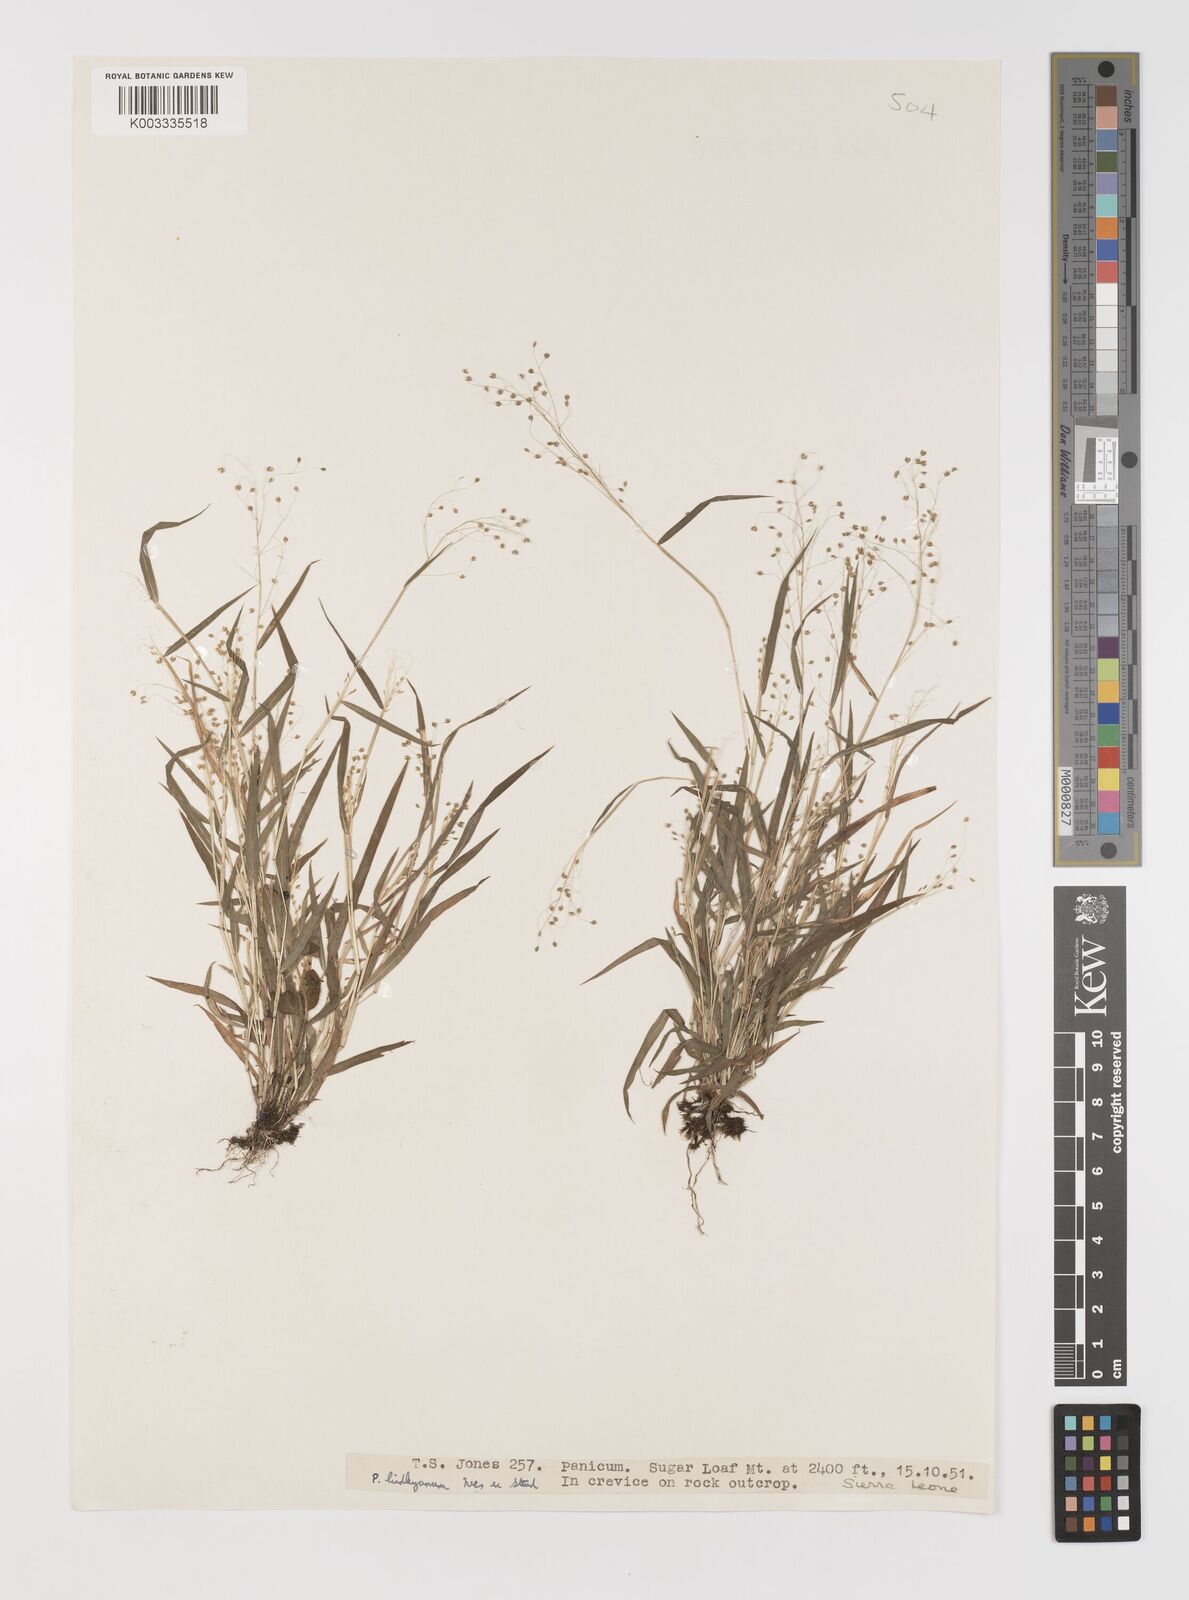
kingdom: Plantae
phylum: Tracheophyta
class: Liliopsida
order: Poales
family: Poaceae
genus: Trichanthecium
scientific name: Trichanthecium tenellum
